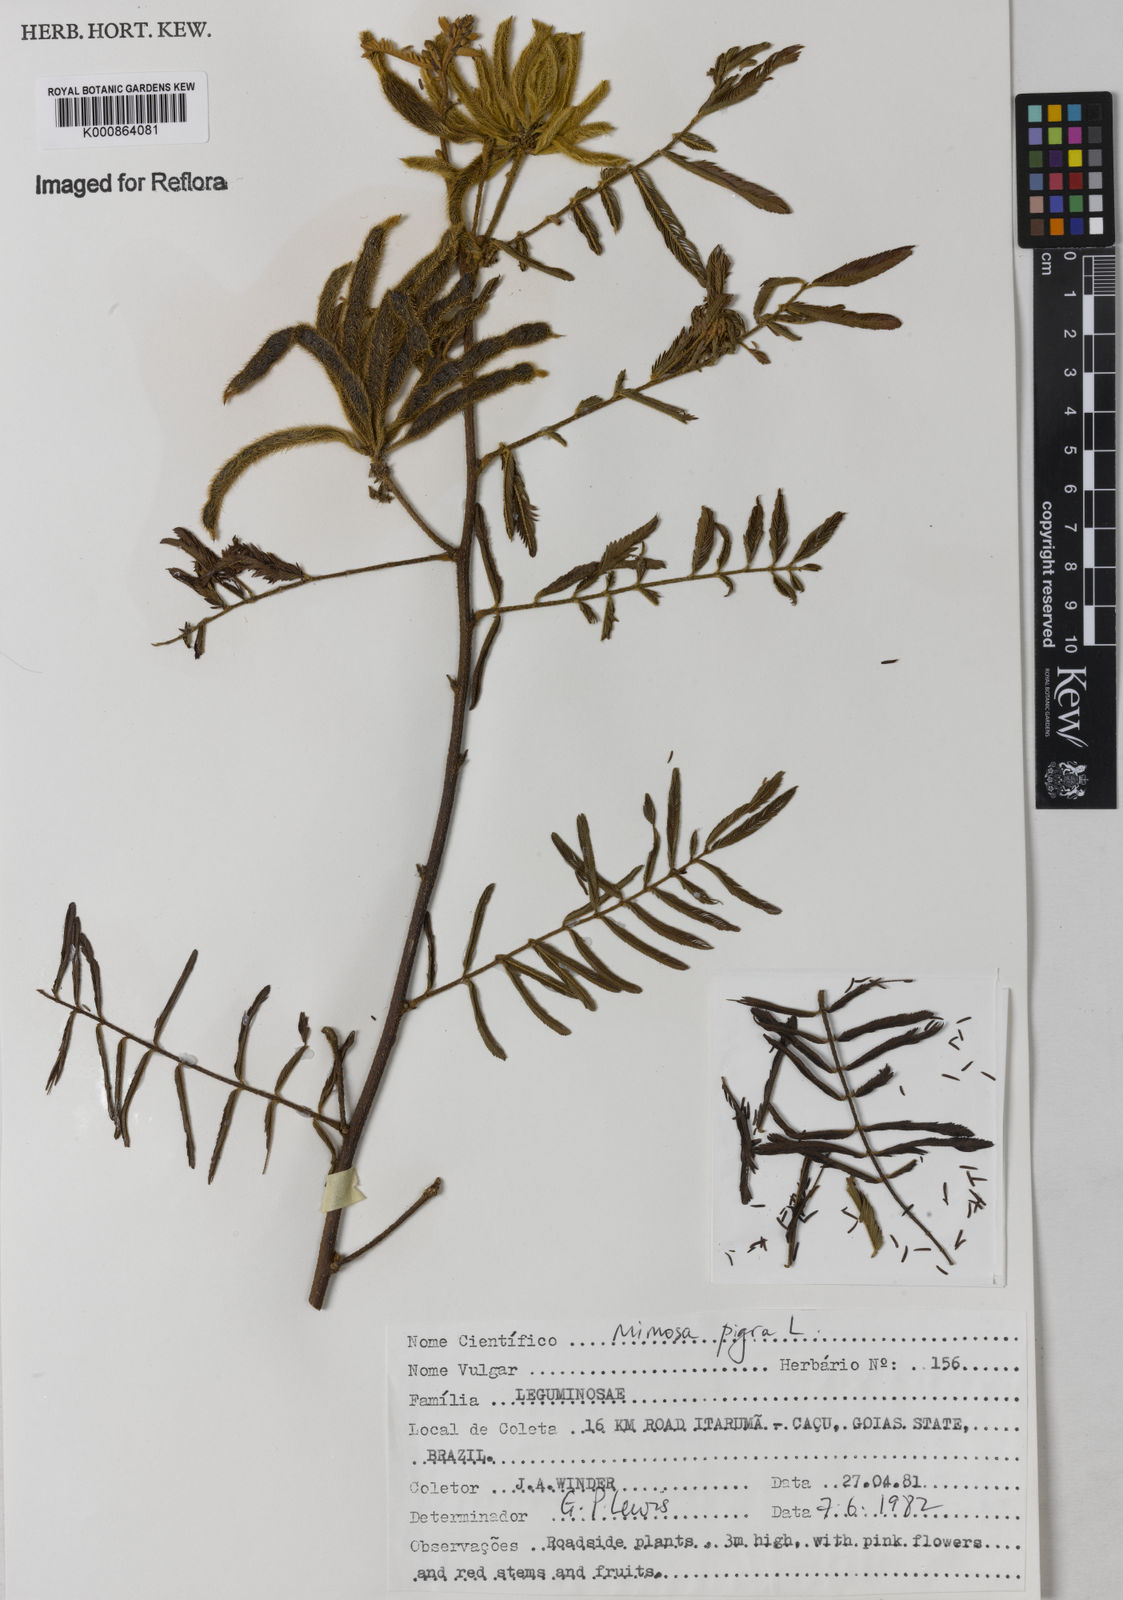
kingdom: Plantae
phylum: Tracheophyta
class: Magnoliopsida
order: Fabales
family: Fabaceae
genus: Mimosa
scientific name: Mimosa pigra
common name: Black mimosa
